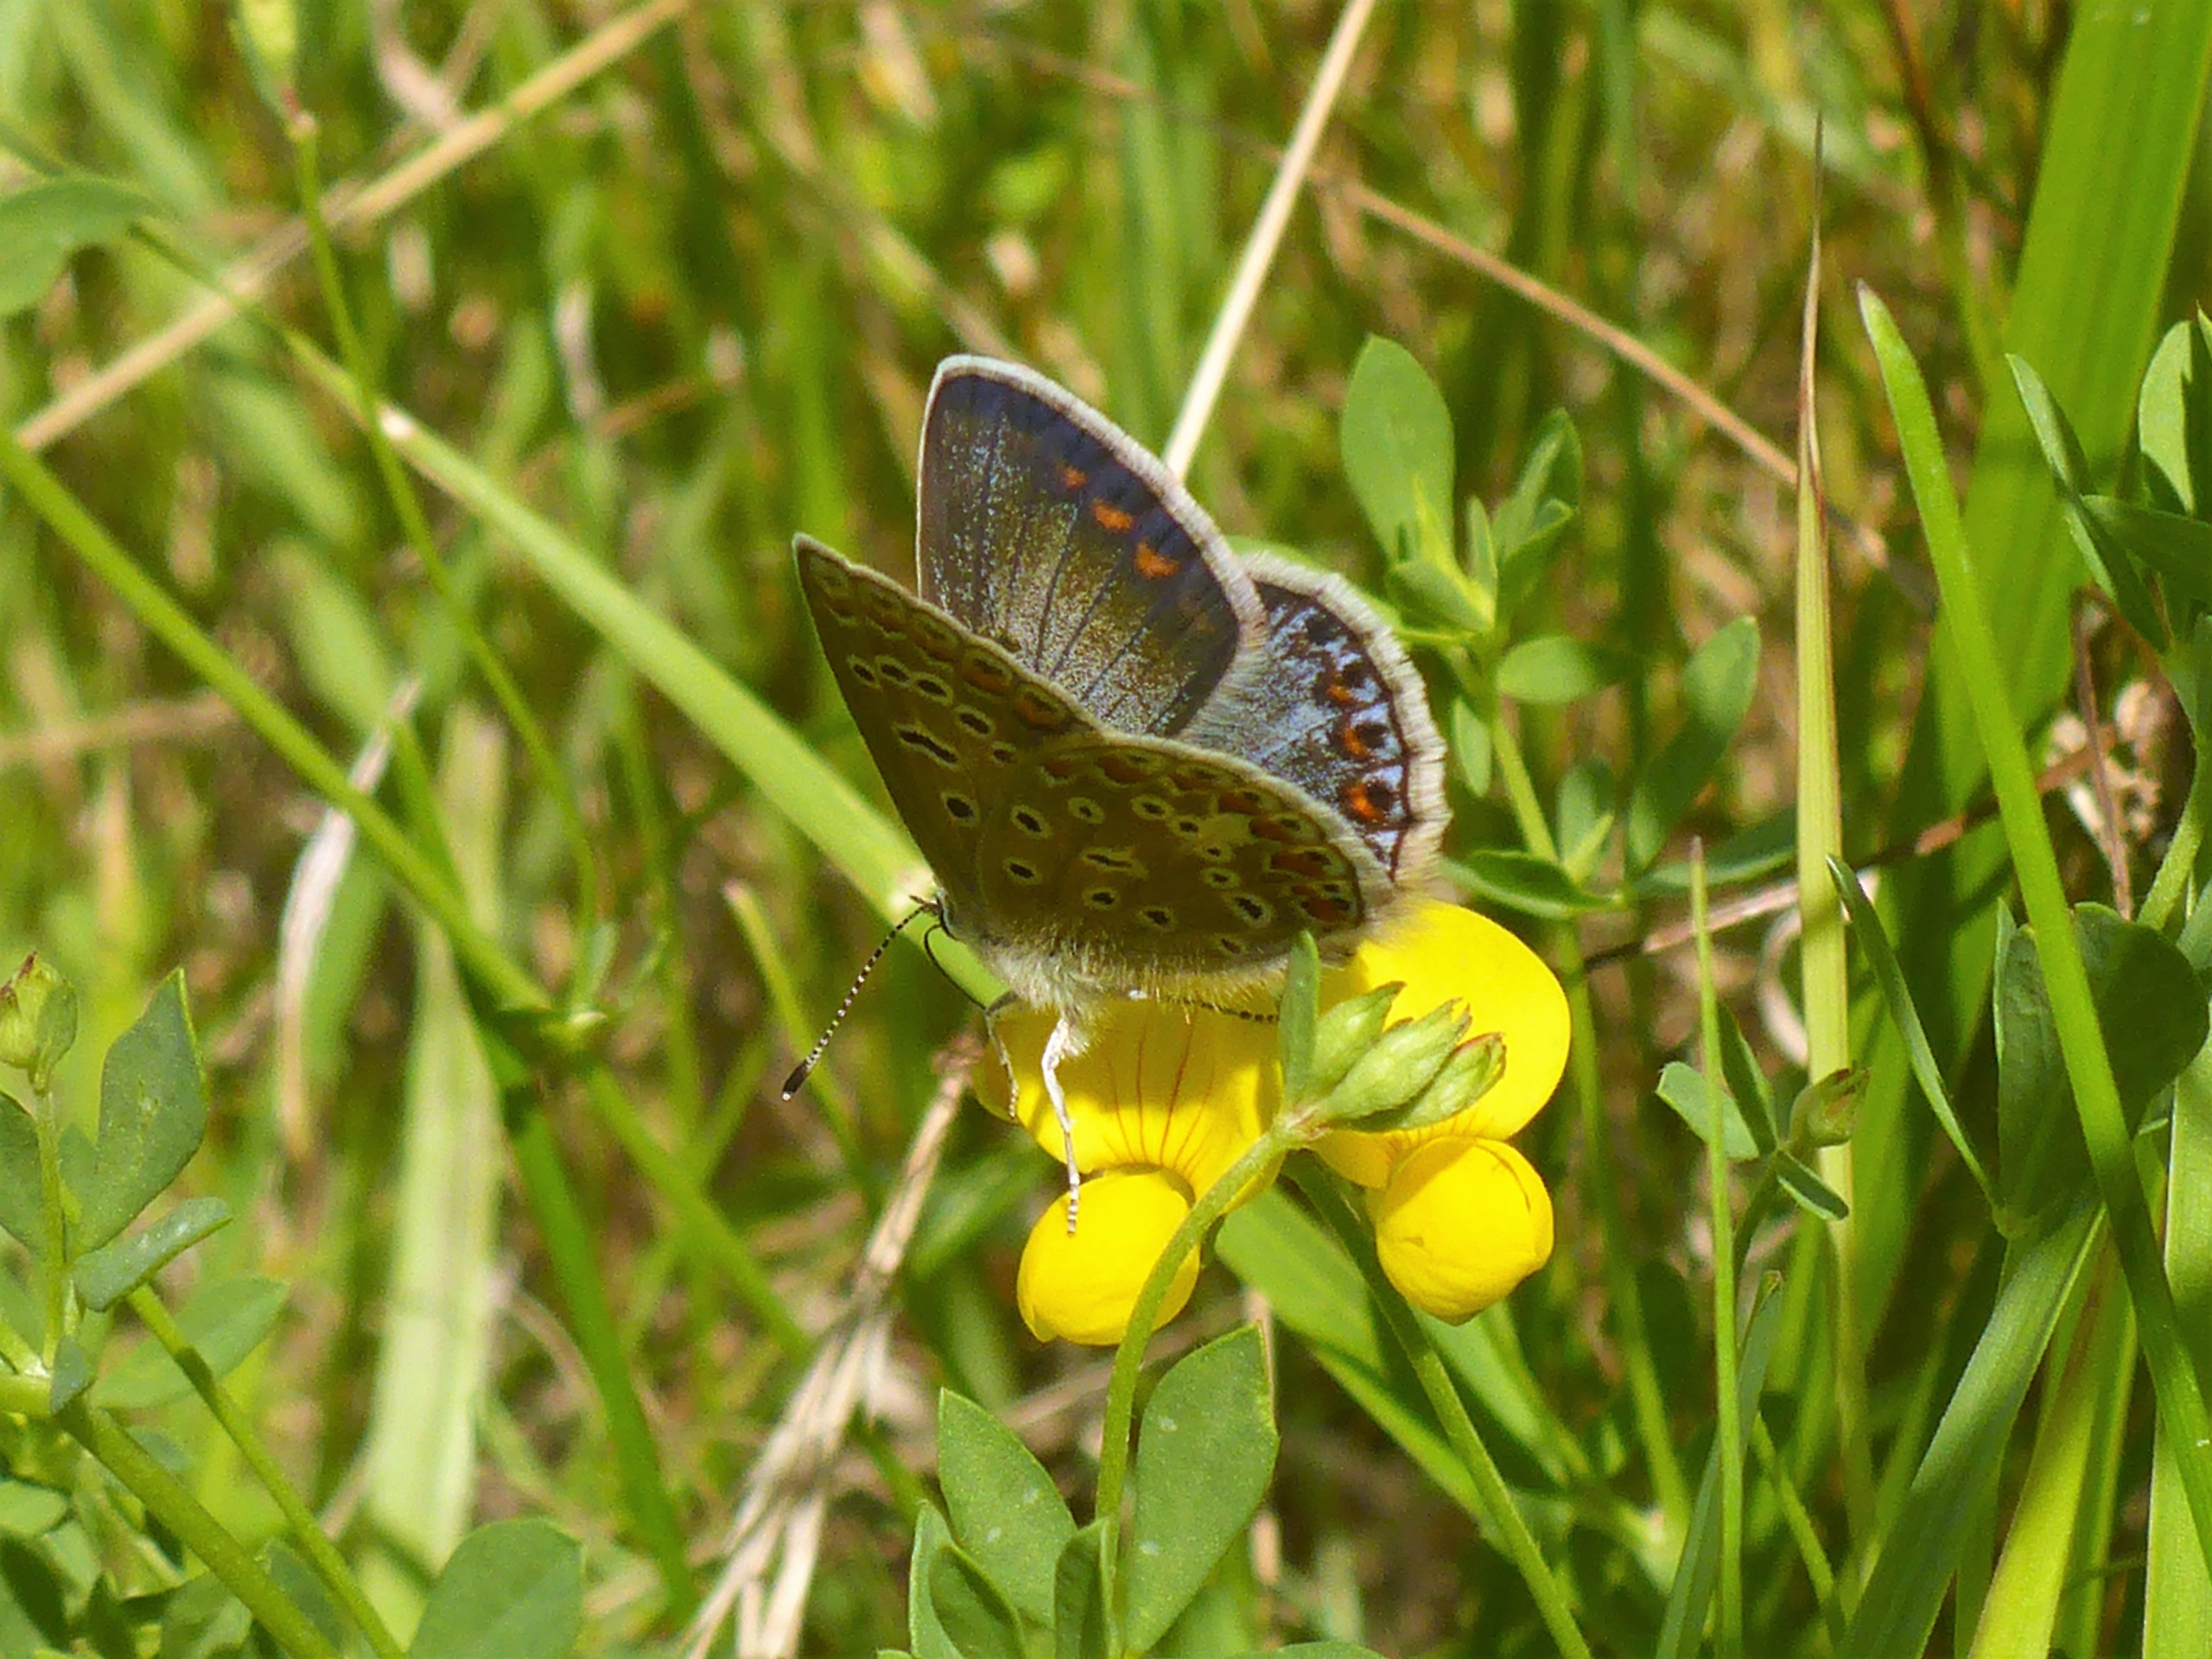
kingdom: Animalia
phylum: Arthropoda
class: Insecta
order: Lepidoptera
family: Lycaenidae
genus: Polyommatus
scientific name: Polyommatus icarus
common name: Almindelig blåfugl
